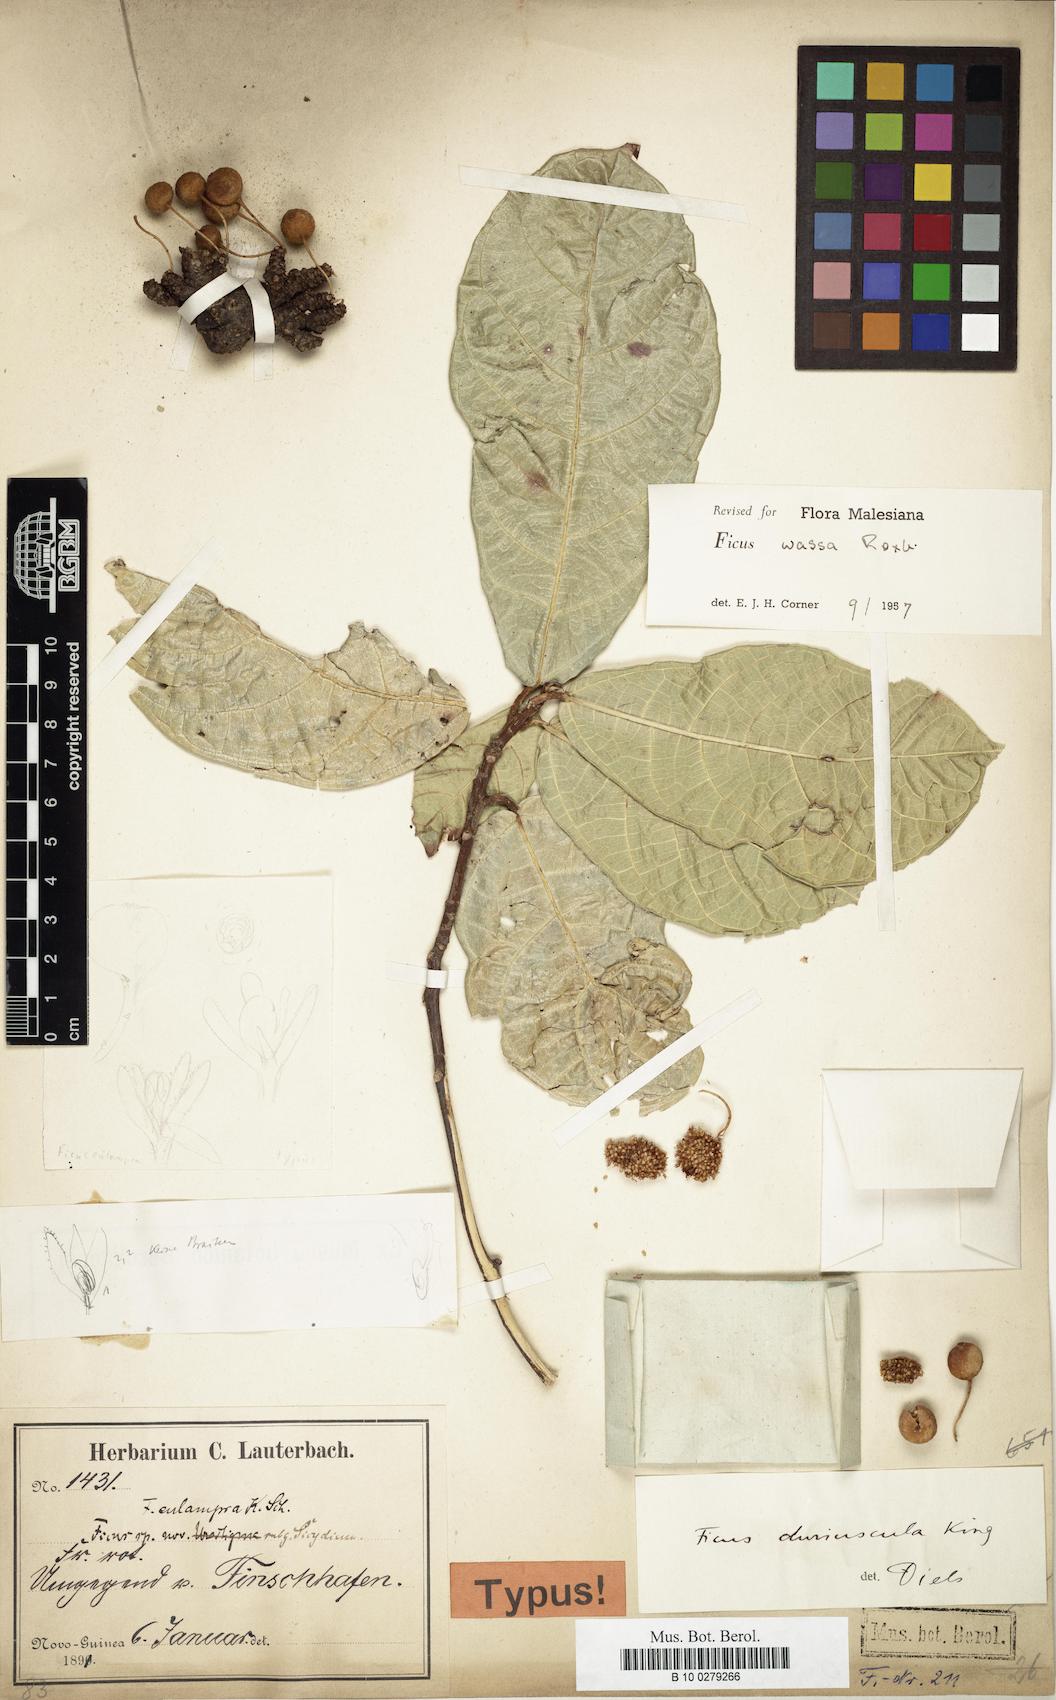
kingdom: Plantae
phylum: Tracheophyta
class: Magnoliopsida
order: Rosales
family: Moraceae
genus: Ficus
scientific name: Ficus wassa
